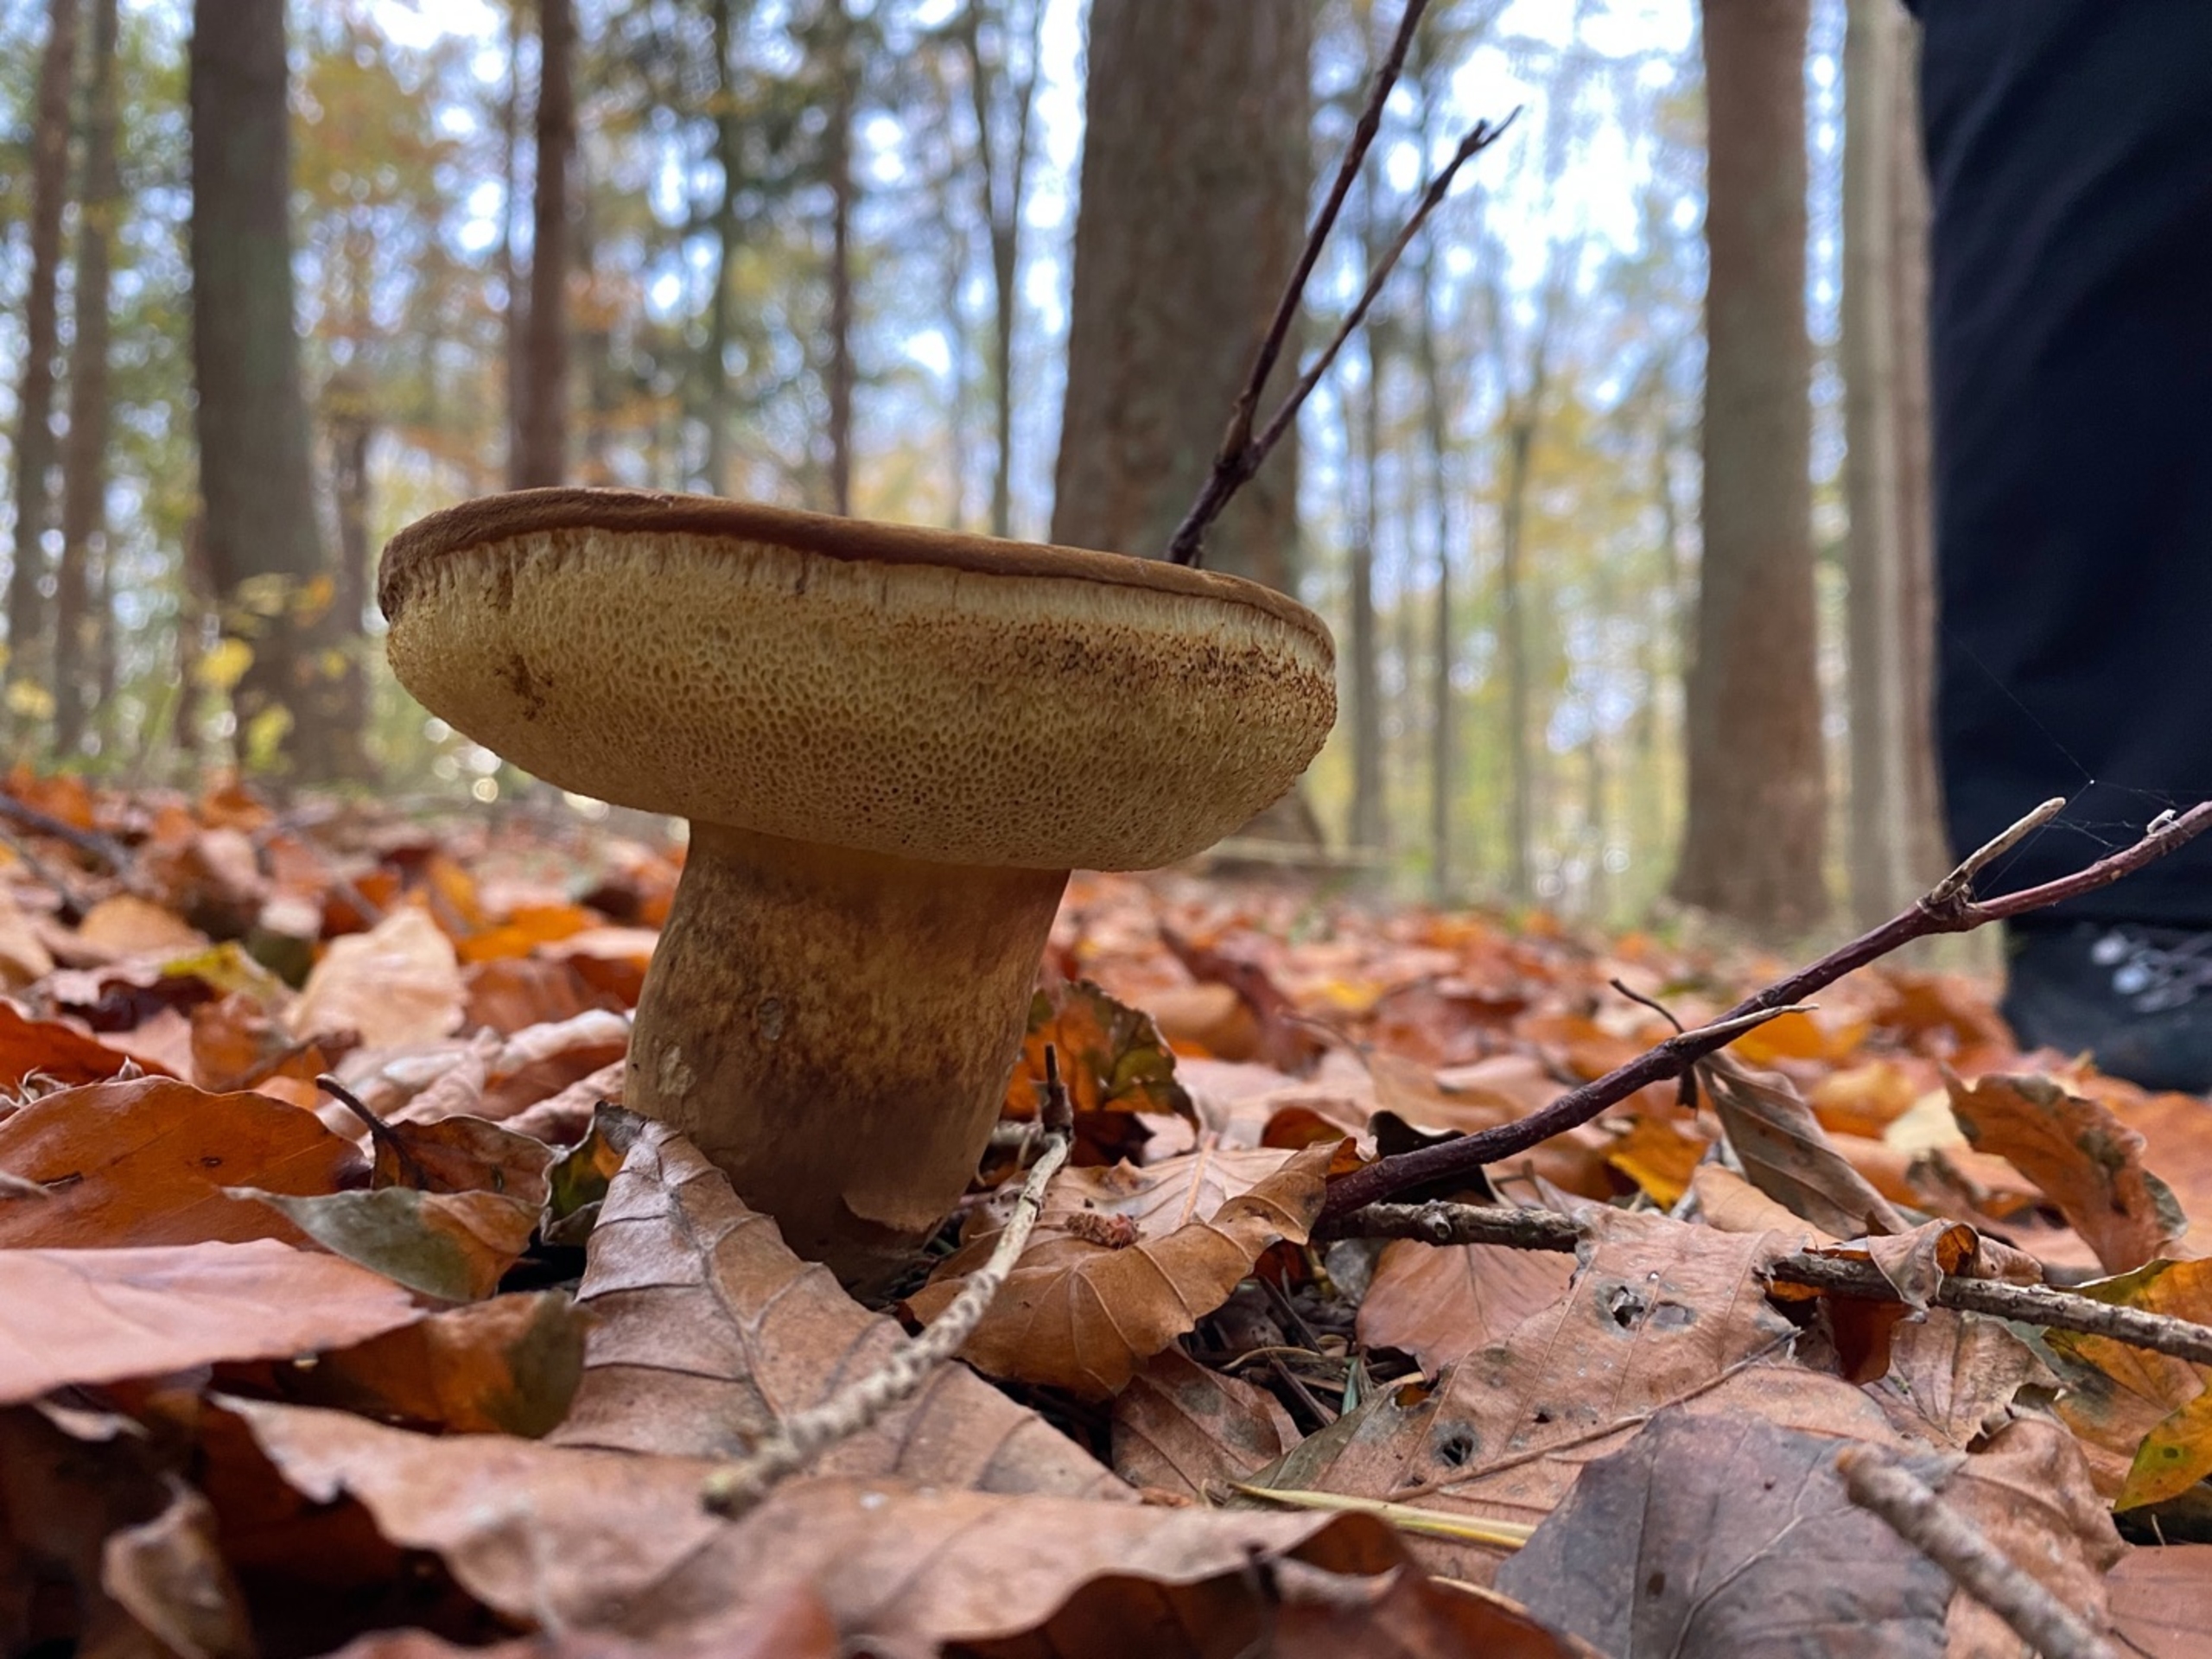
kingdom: Fungi
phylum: Basidiomycota
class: Agaricomycetes
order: Boletales
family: Boletaceae
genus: Imleria
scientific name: Imleria badia
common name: Brunstokket rørhat
